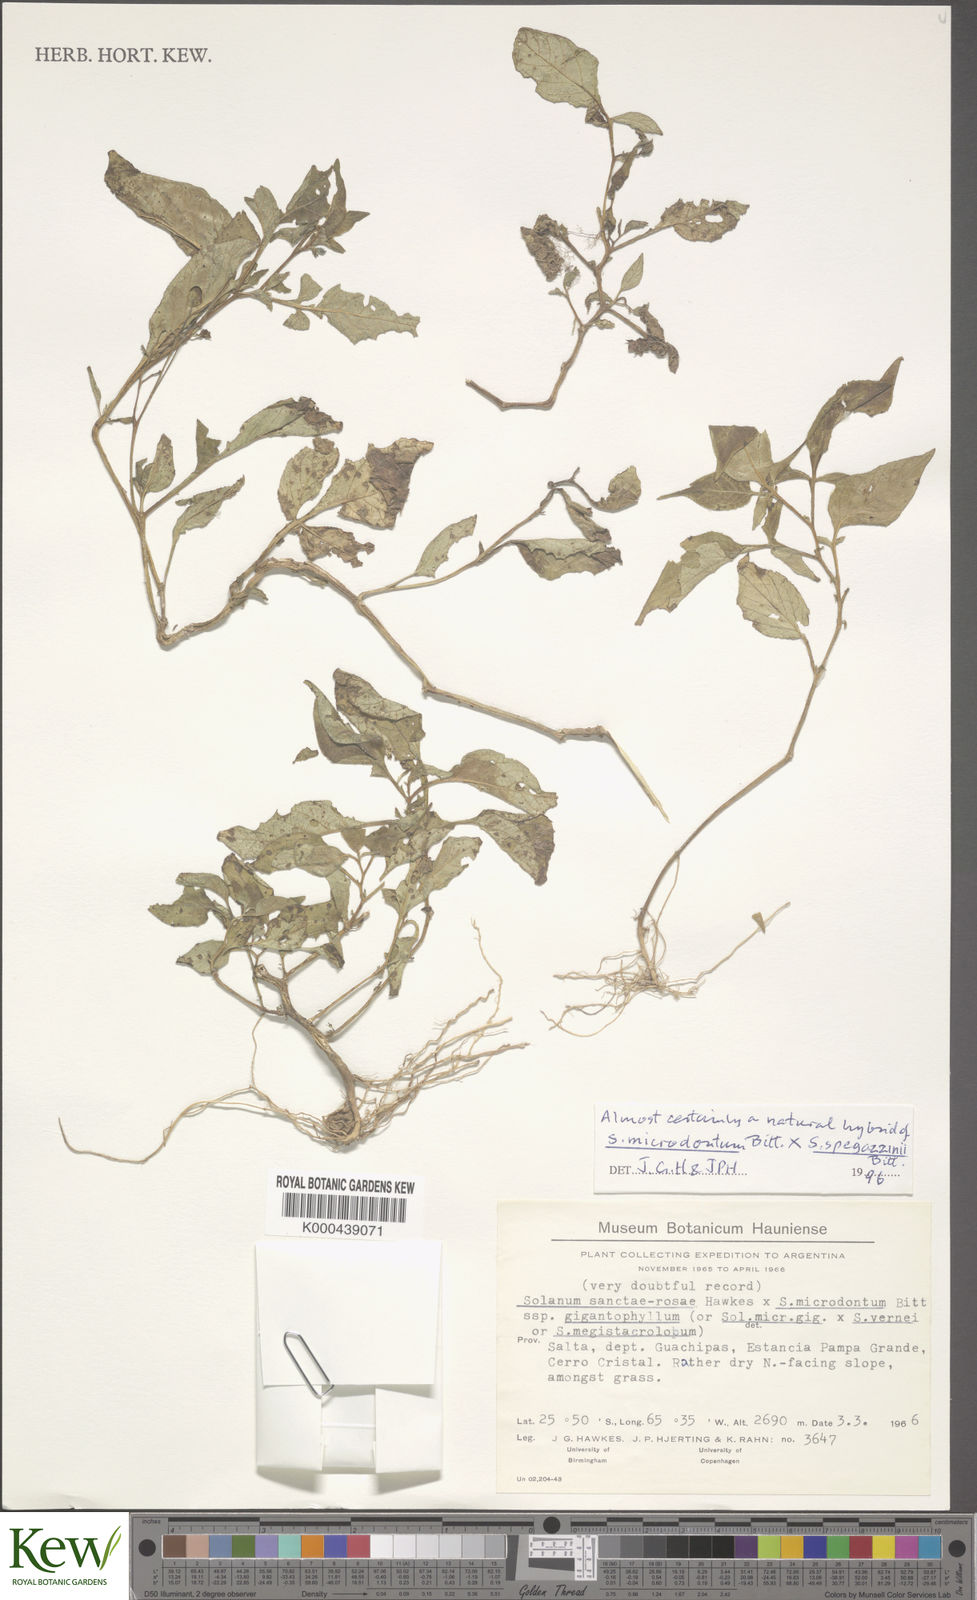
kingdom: Plantae
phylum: Tracheophyta
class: Magnoliopsida
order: Solanales
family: Solanaceae
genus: Solanum
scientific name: Solanum microdontum
